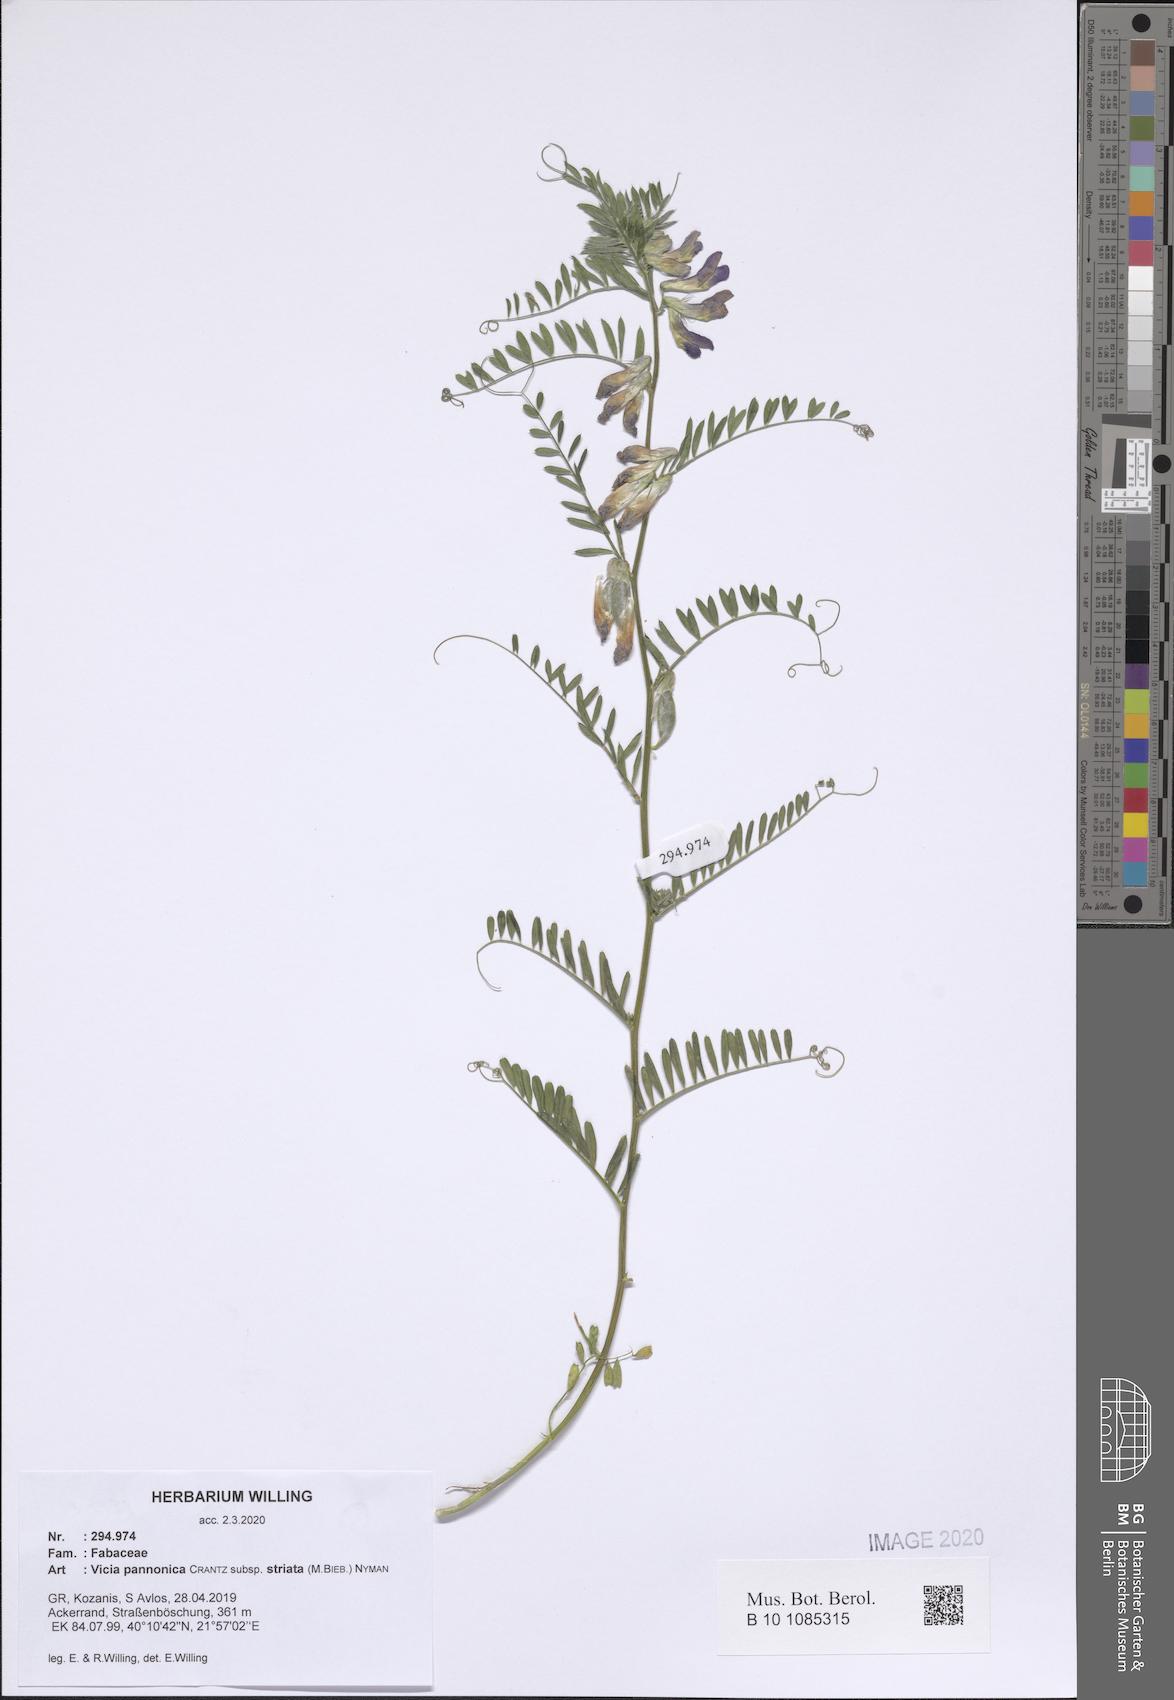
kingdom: Plantae
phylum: Tracheophyta
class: Magnoliopsida
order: Fabales
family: Fabaceae
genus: Vicia
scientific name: Vicia pannonica
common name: Hungarian vetch
